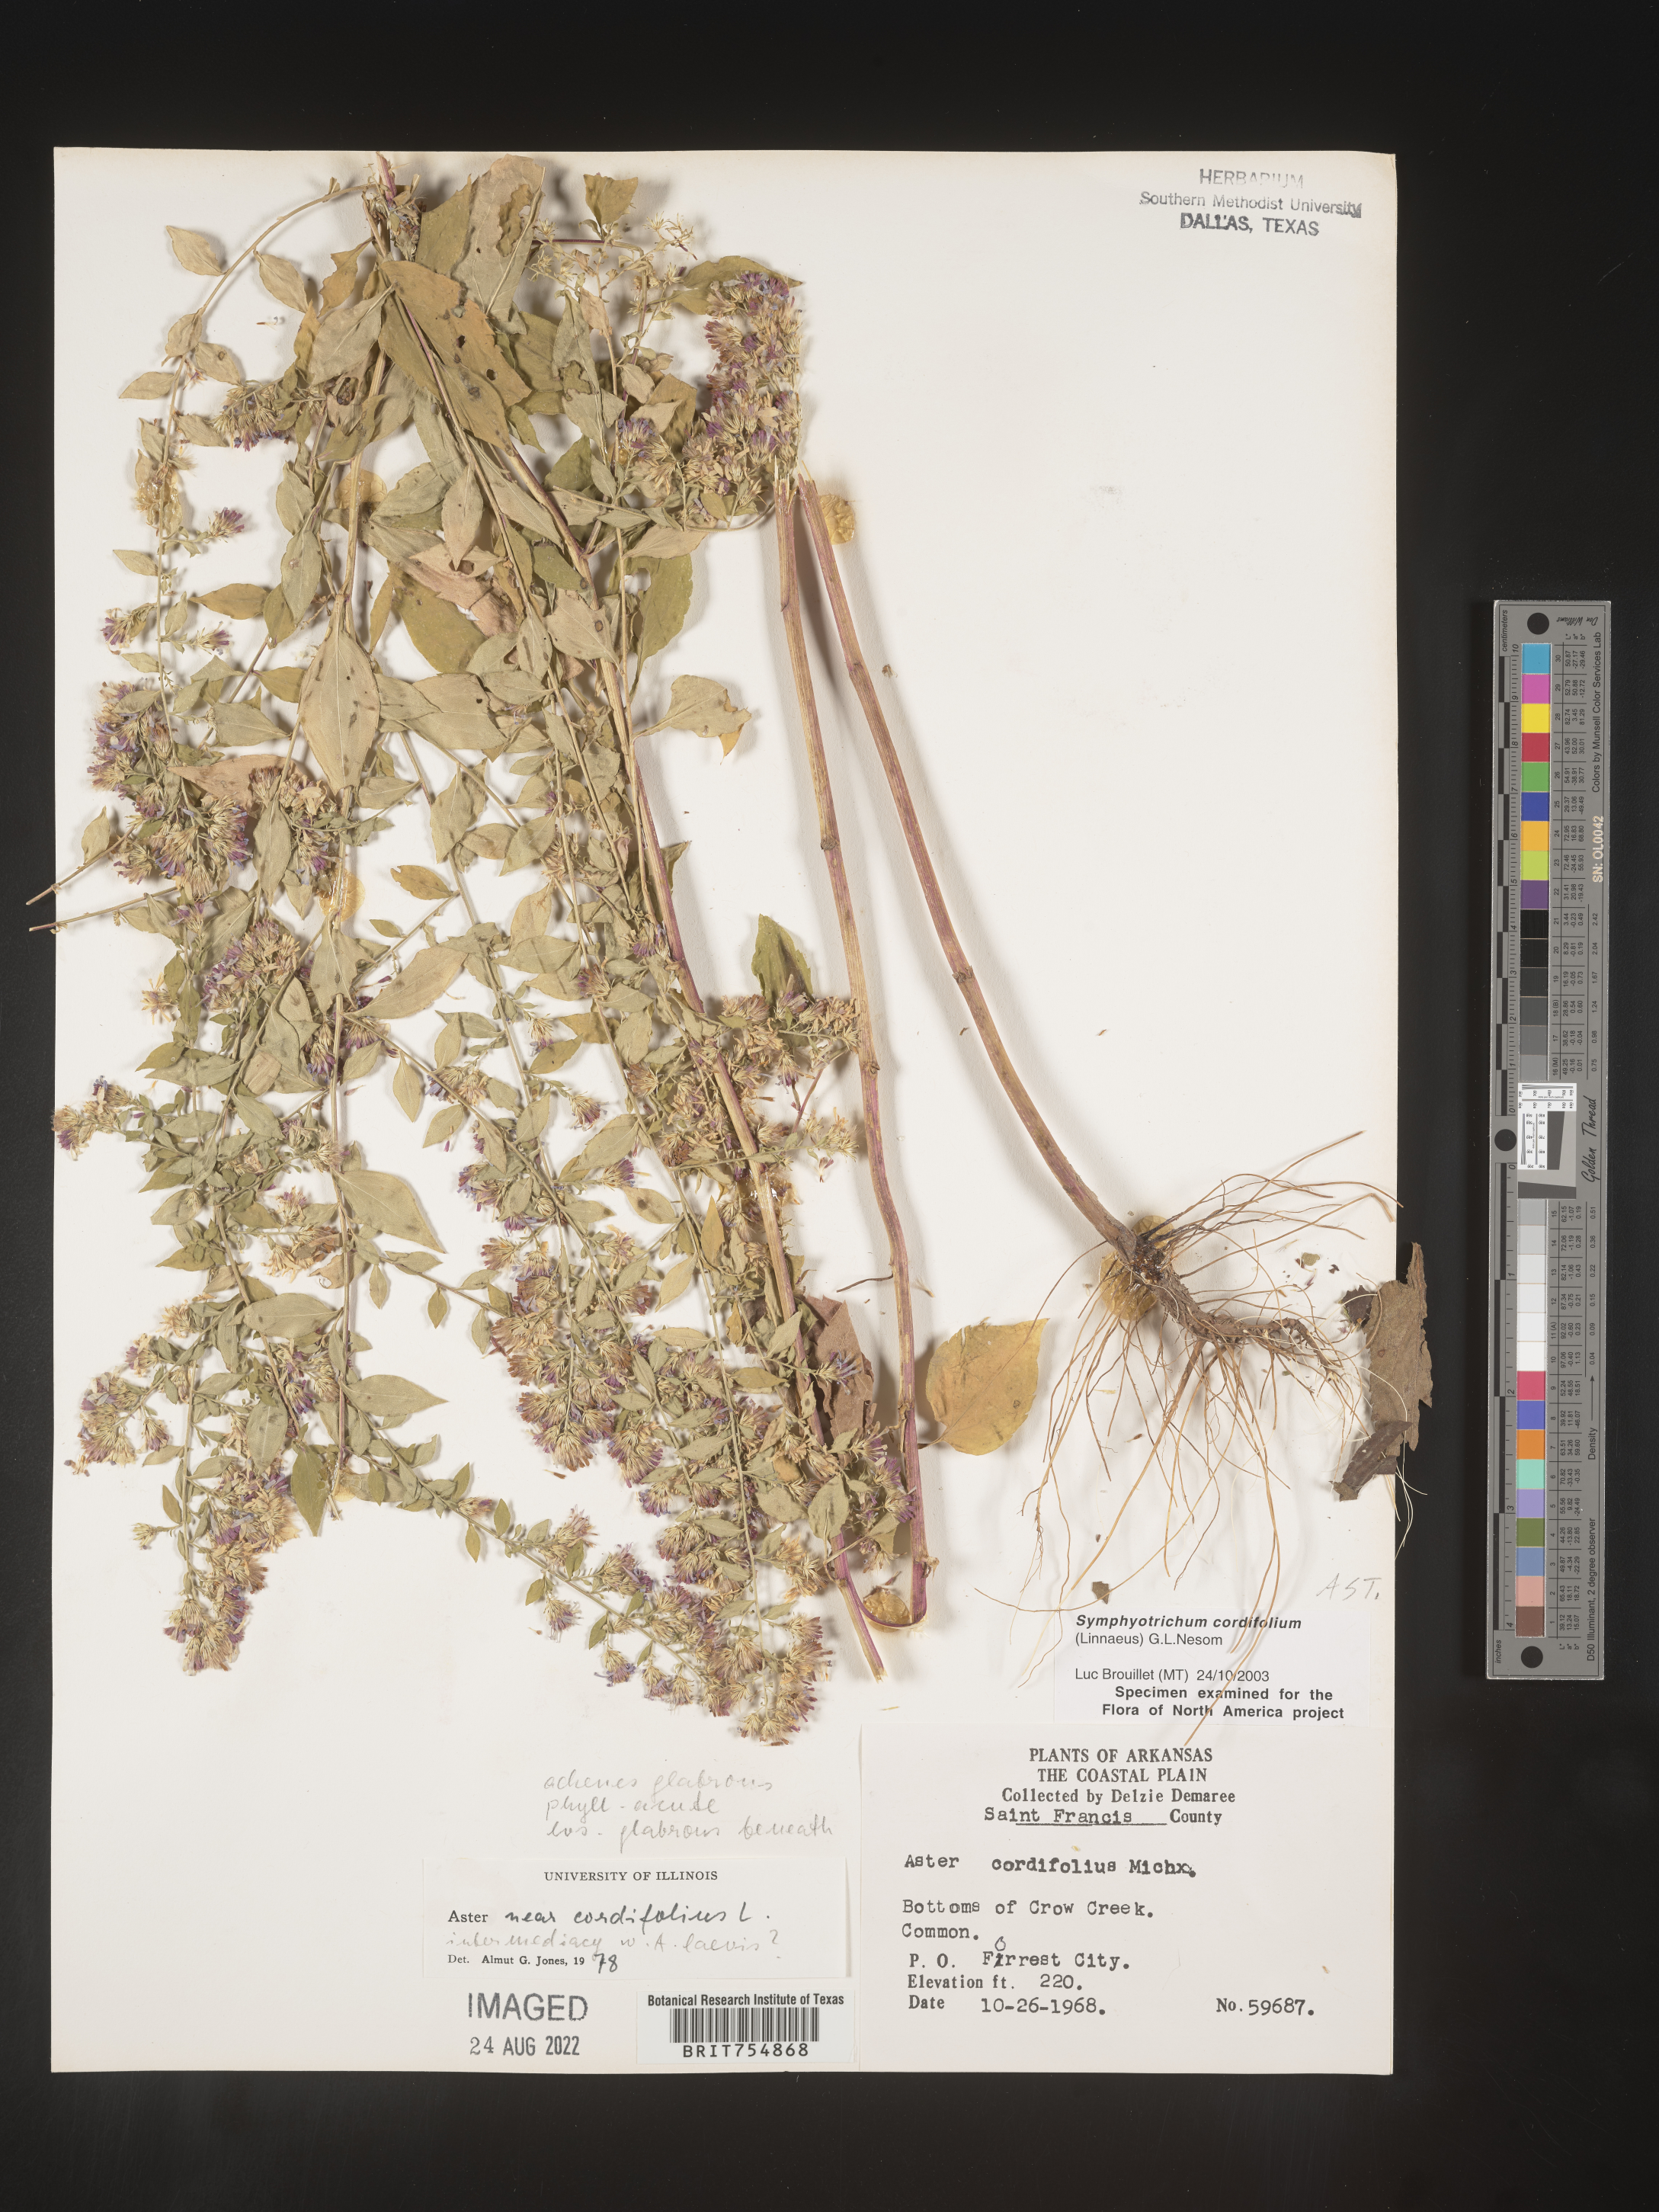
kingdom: Plantae
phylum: Tracheophyta
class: Magnoliopsida
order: Asterales
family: Asteraceae
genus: Symphyotrichum
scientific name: Symphyotrichum urophyllum
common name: Arrow-leaved aster
